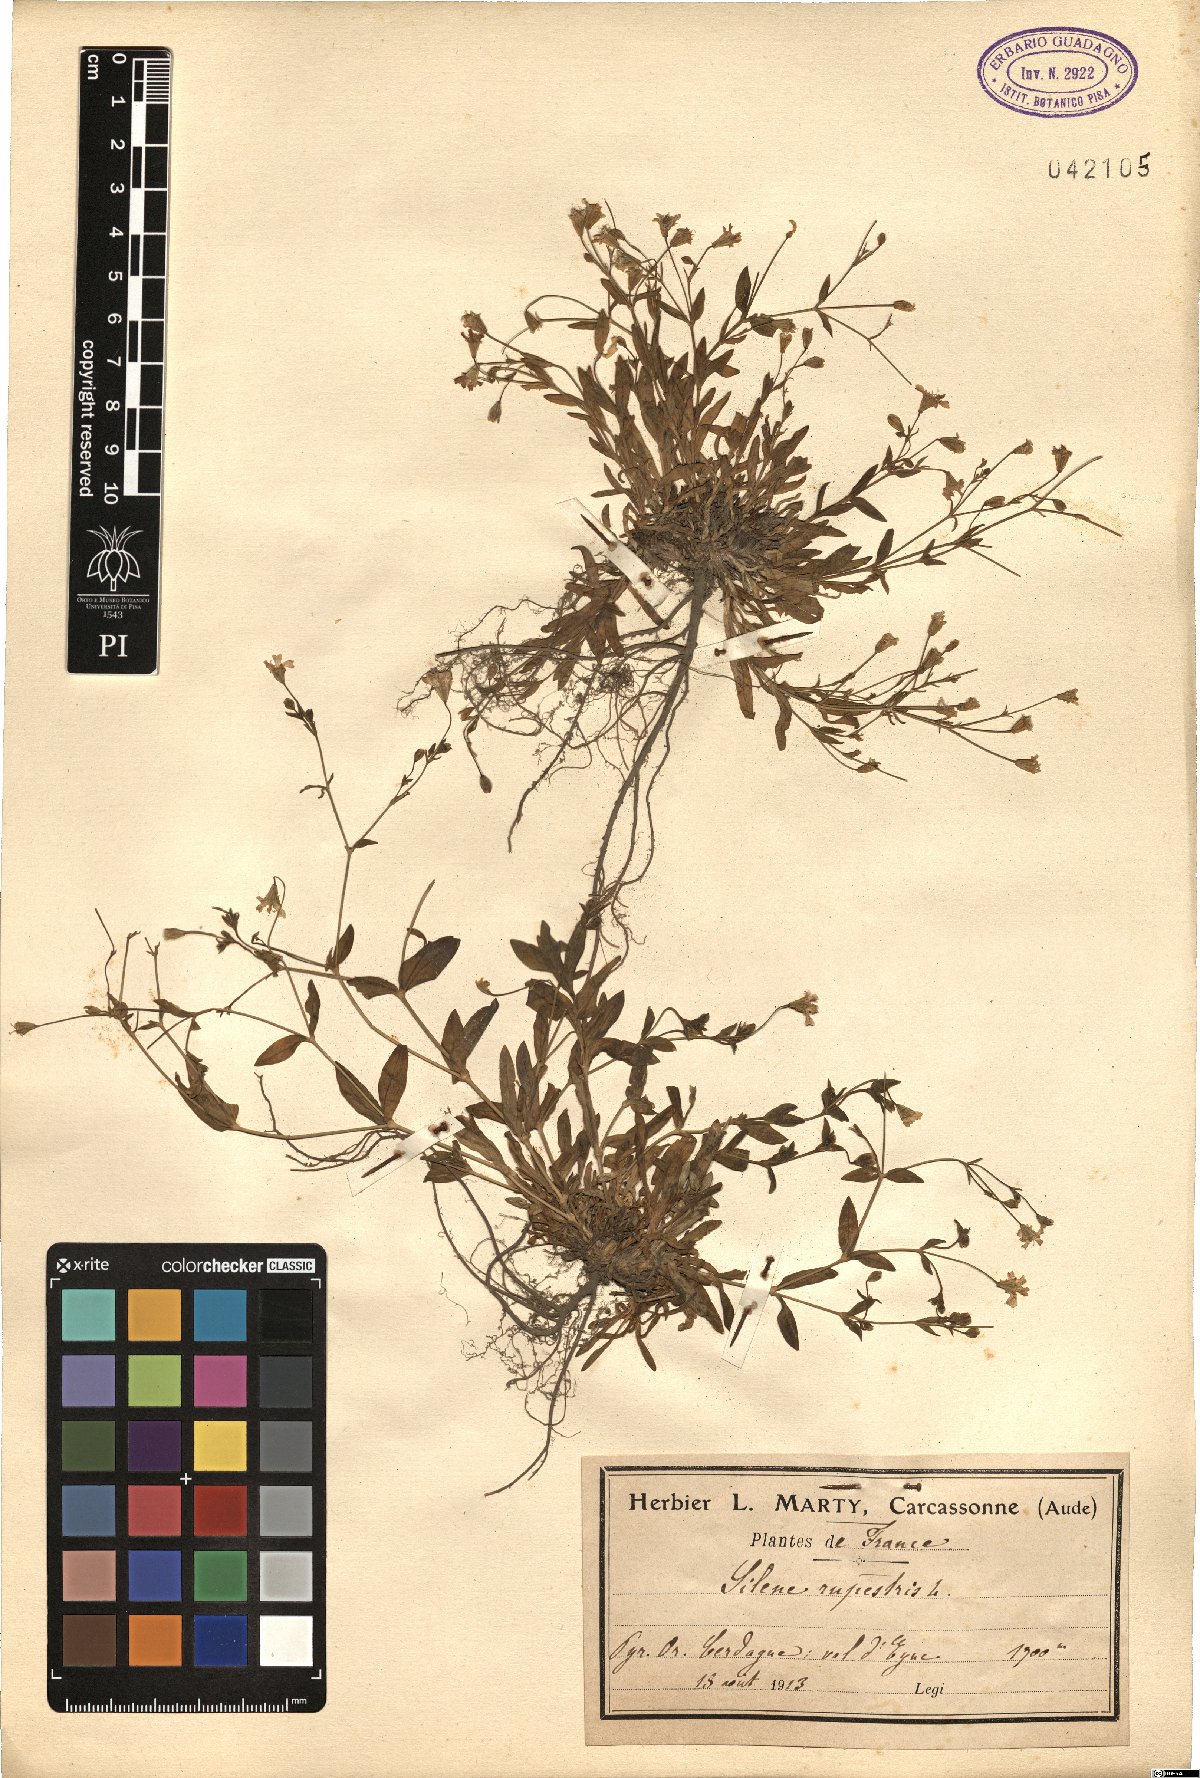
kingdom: Plantae
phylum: Tracheophyta
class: Magnoliopsida
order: Caryophyllales
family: Caryophyllaceae
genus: Atocion
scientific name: Atocion rupestre
